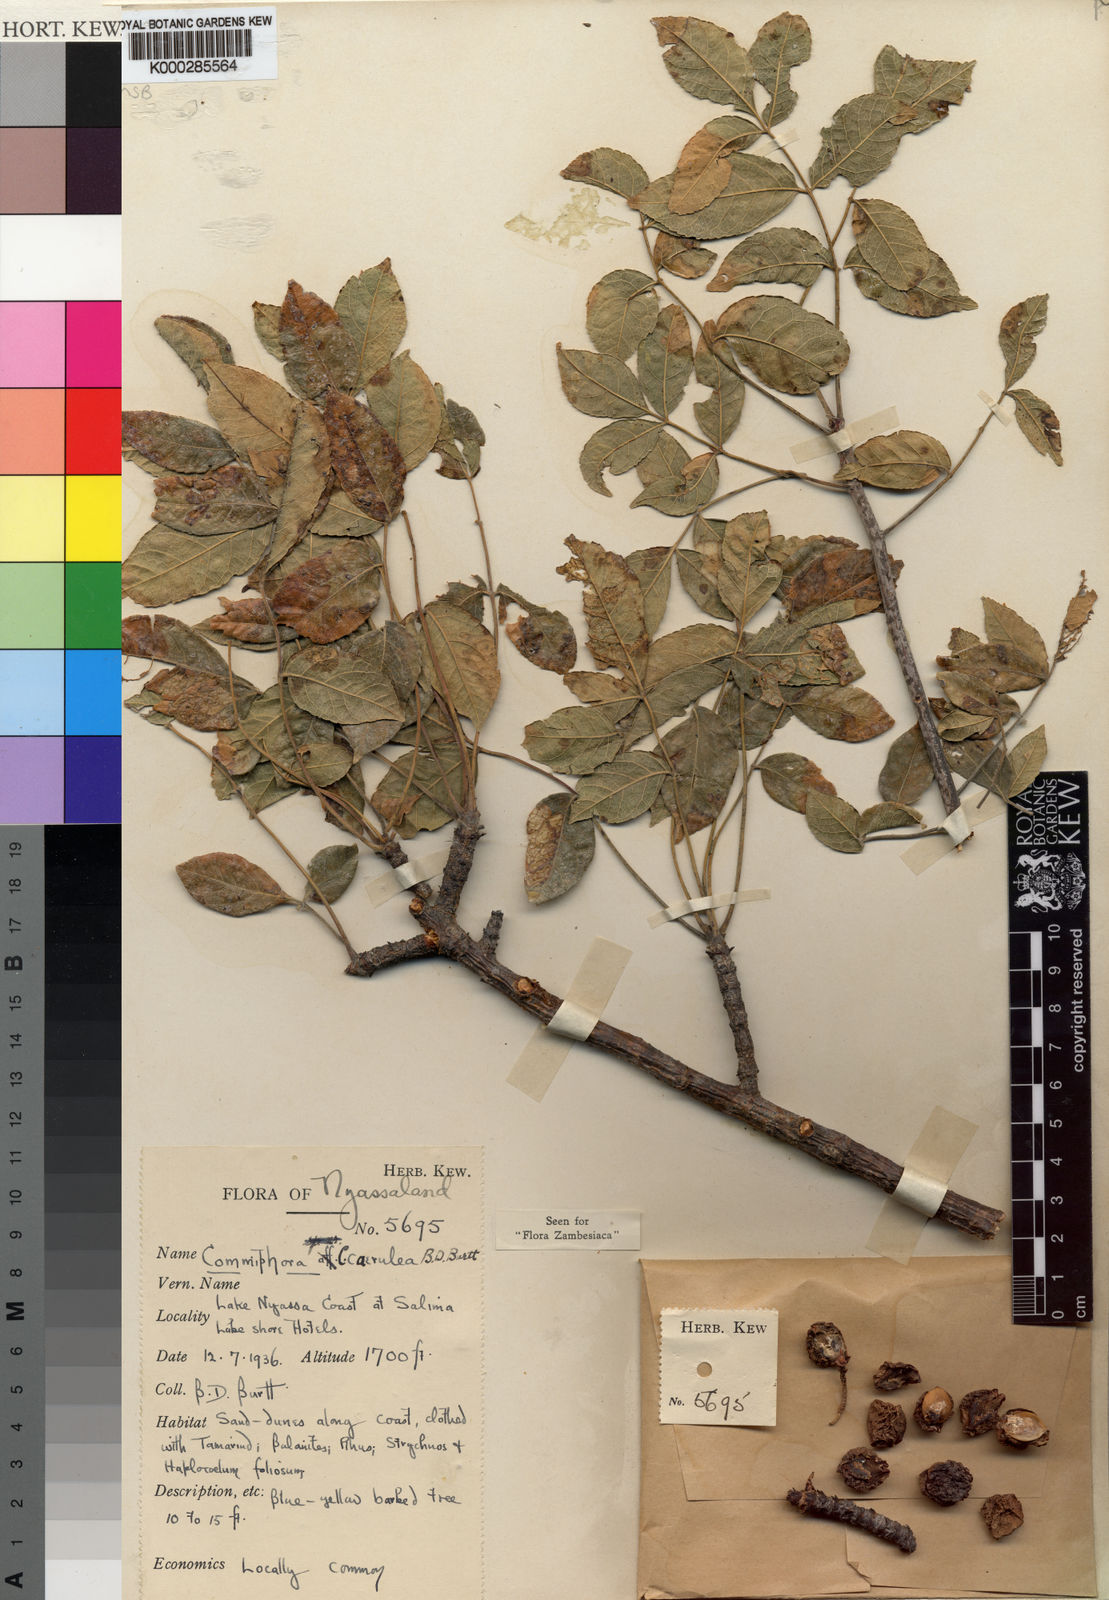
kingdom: Plantae
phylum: Tracheophyta
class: Magnoliopsida
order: Sapindales
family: Burseraceae
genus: Commiphora
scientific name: Commiphora caerulea
